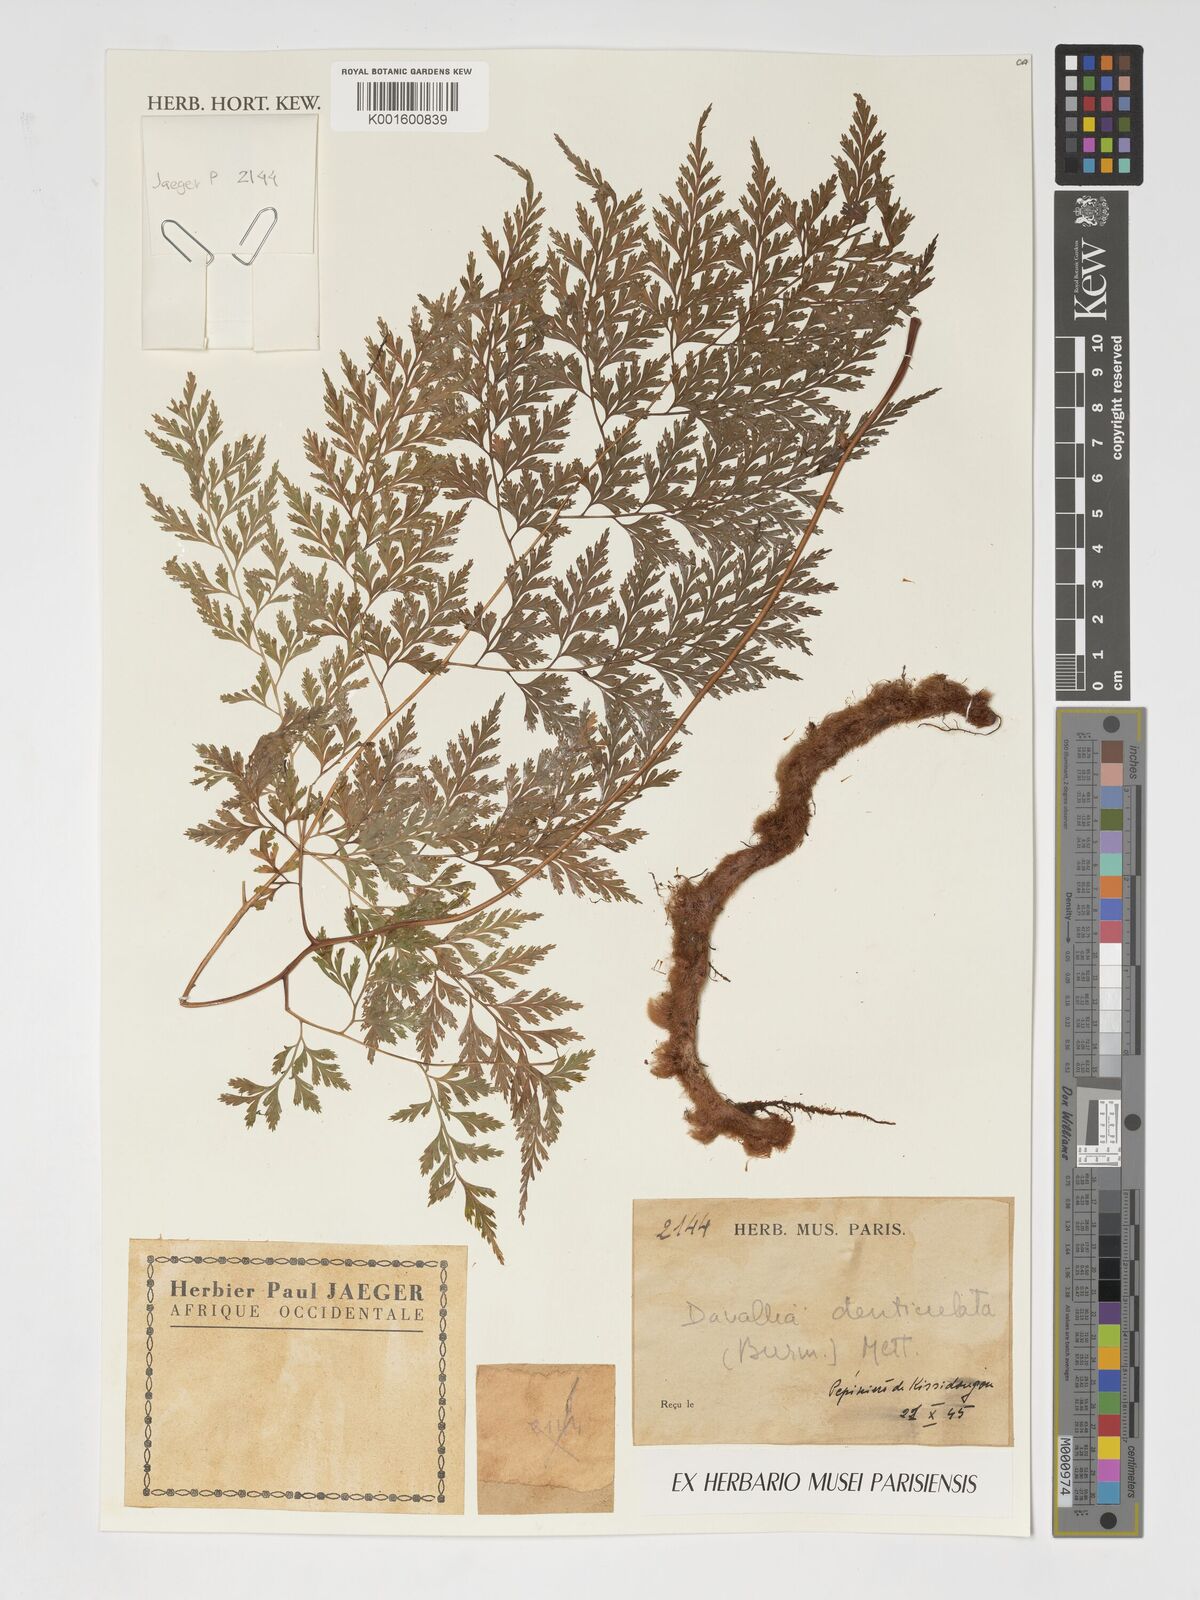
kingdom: Plantae
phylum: Tracheophyta
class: Polypodiopsida
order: Polypodiales
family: Davalliaceae
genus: Davallia
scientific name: Davallia denticulata
